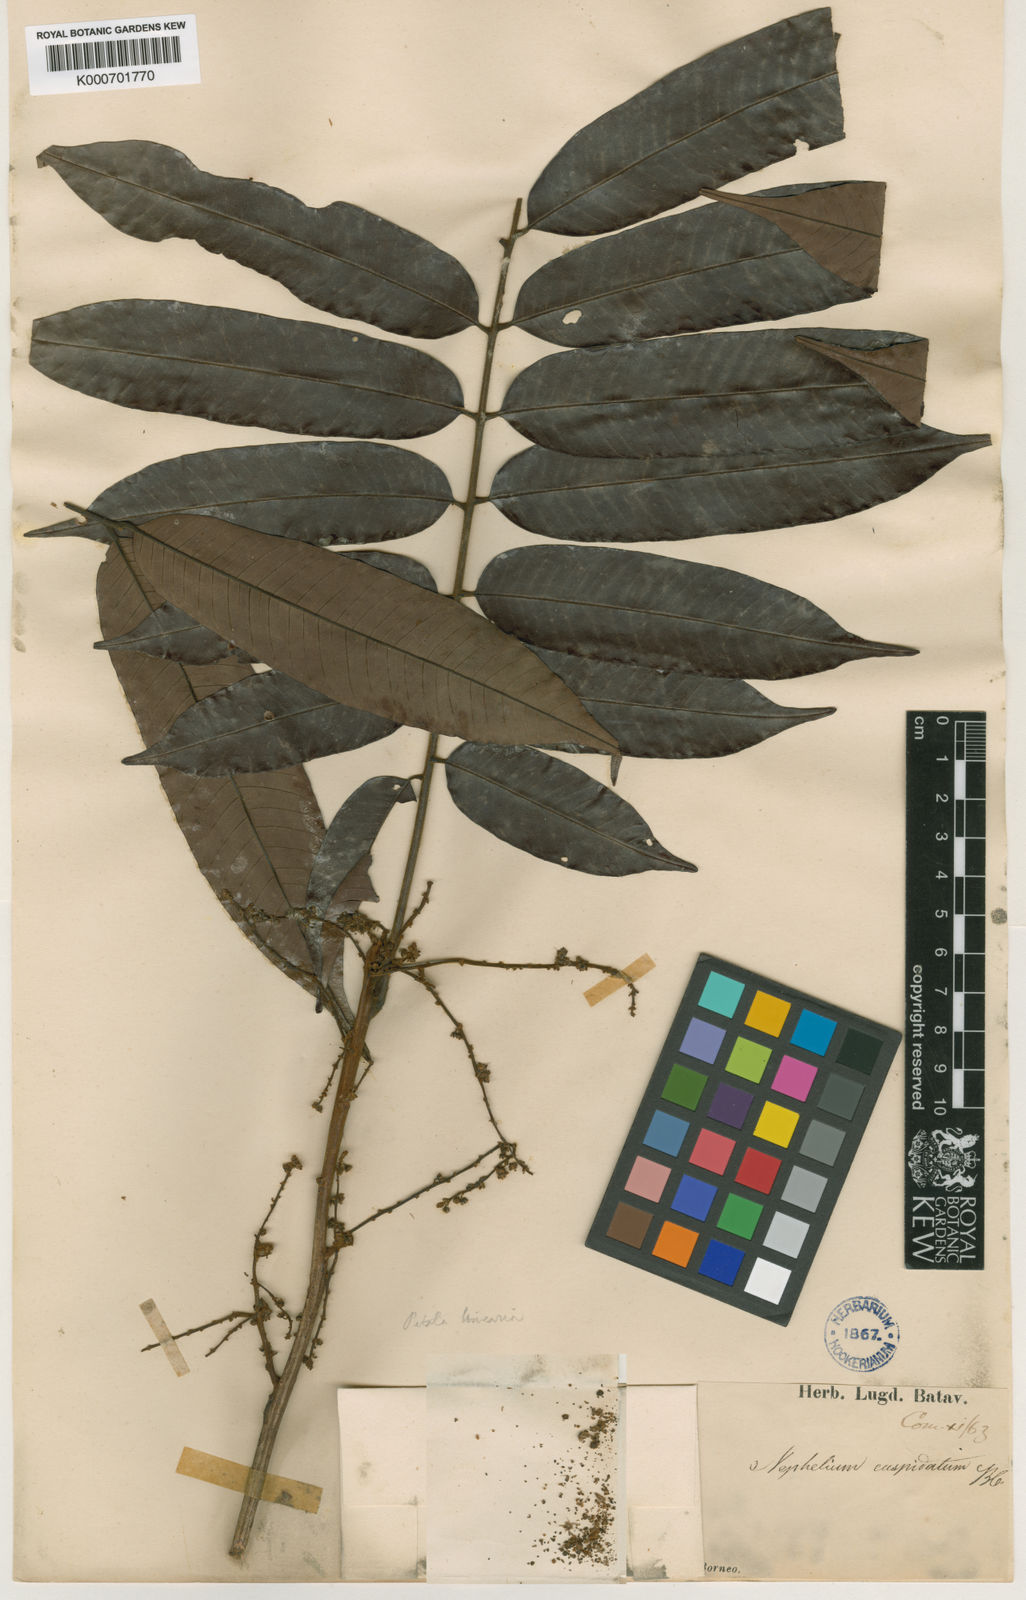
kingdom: Plantae
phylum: Tracheophyta
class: Magnoliopsida
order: Sapindales
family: Sapindaceae
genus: Nephelium
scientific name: Nephelium cuspidatum
